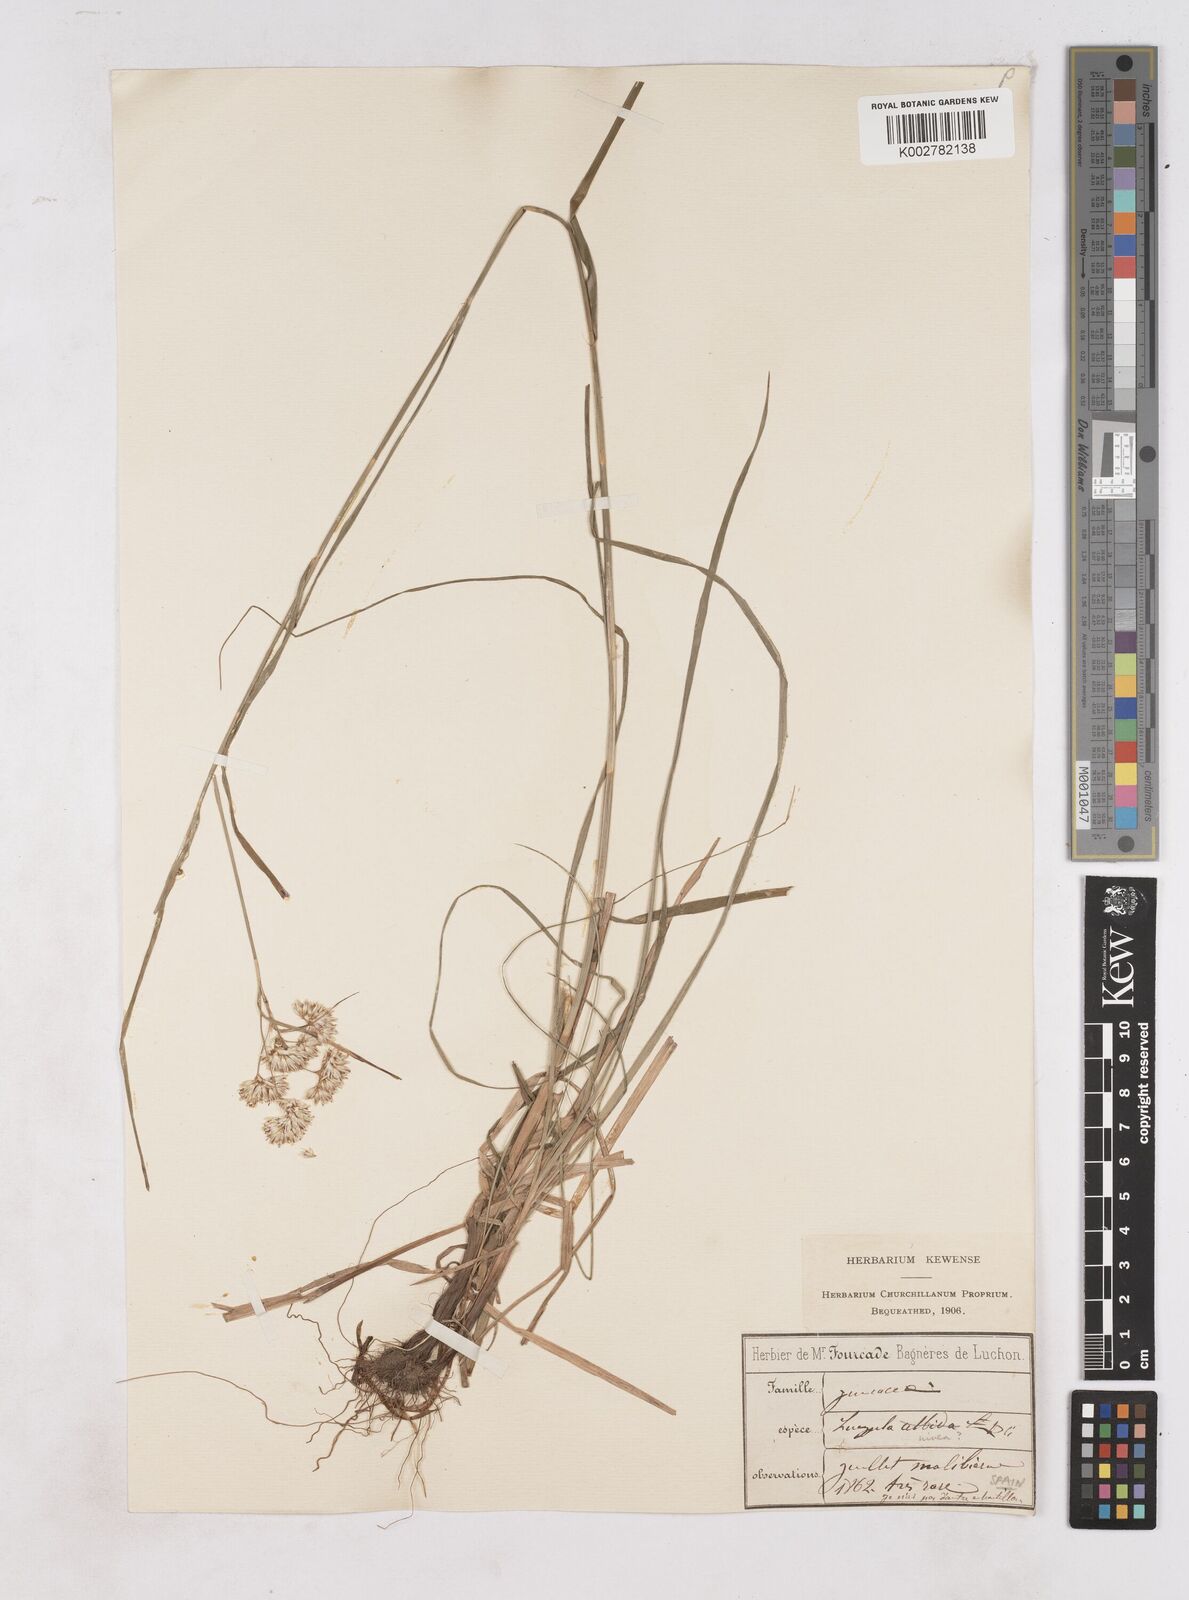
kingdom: Plantae
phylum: Tracheophyta
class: Liliopsida
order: Poales
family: Juncaceae
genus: Luzula
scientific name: Luzula nivea
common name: Snow-white wood-rush
